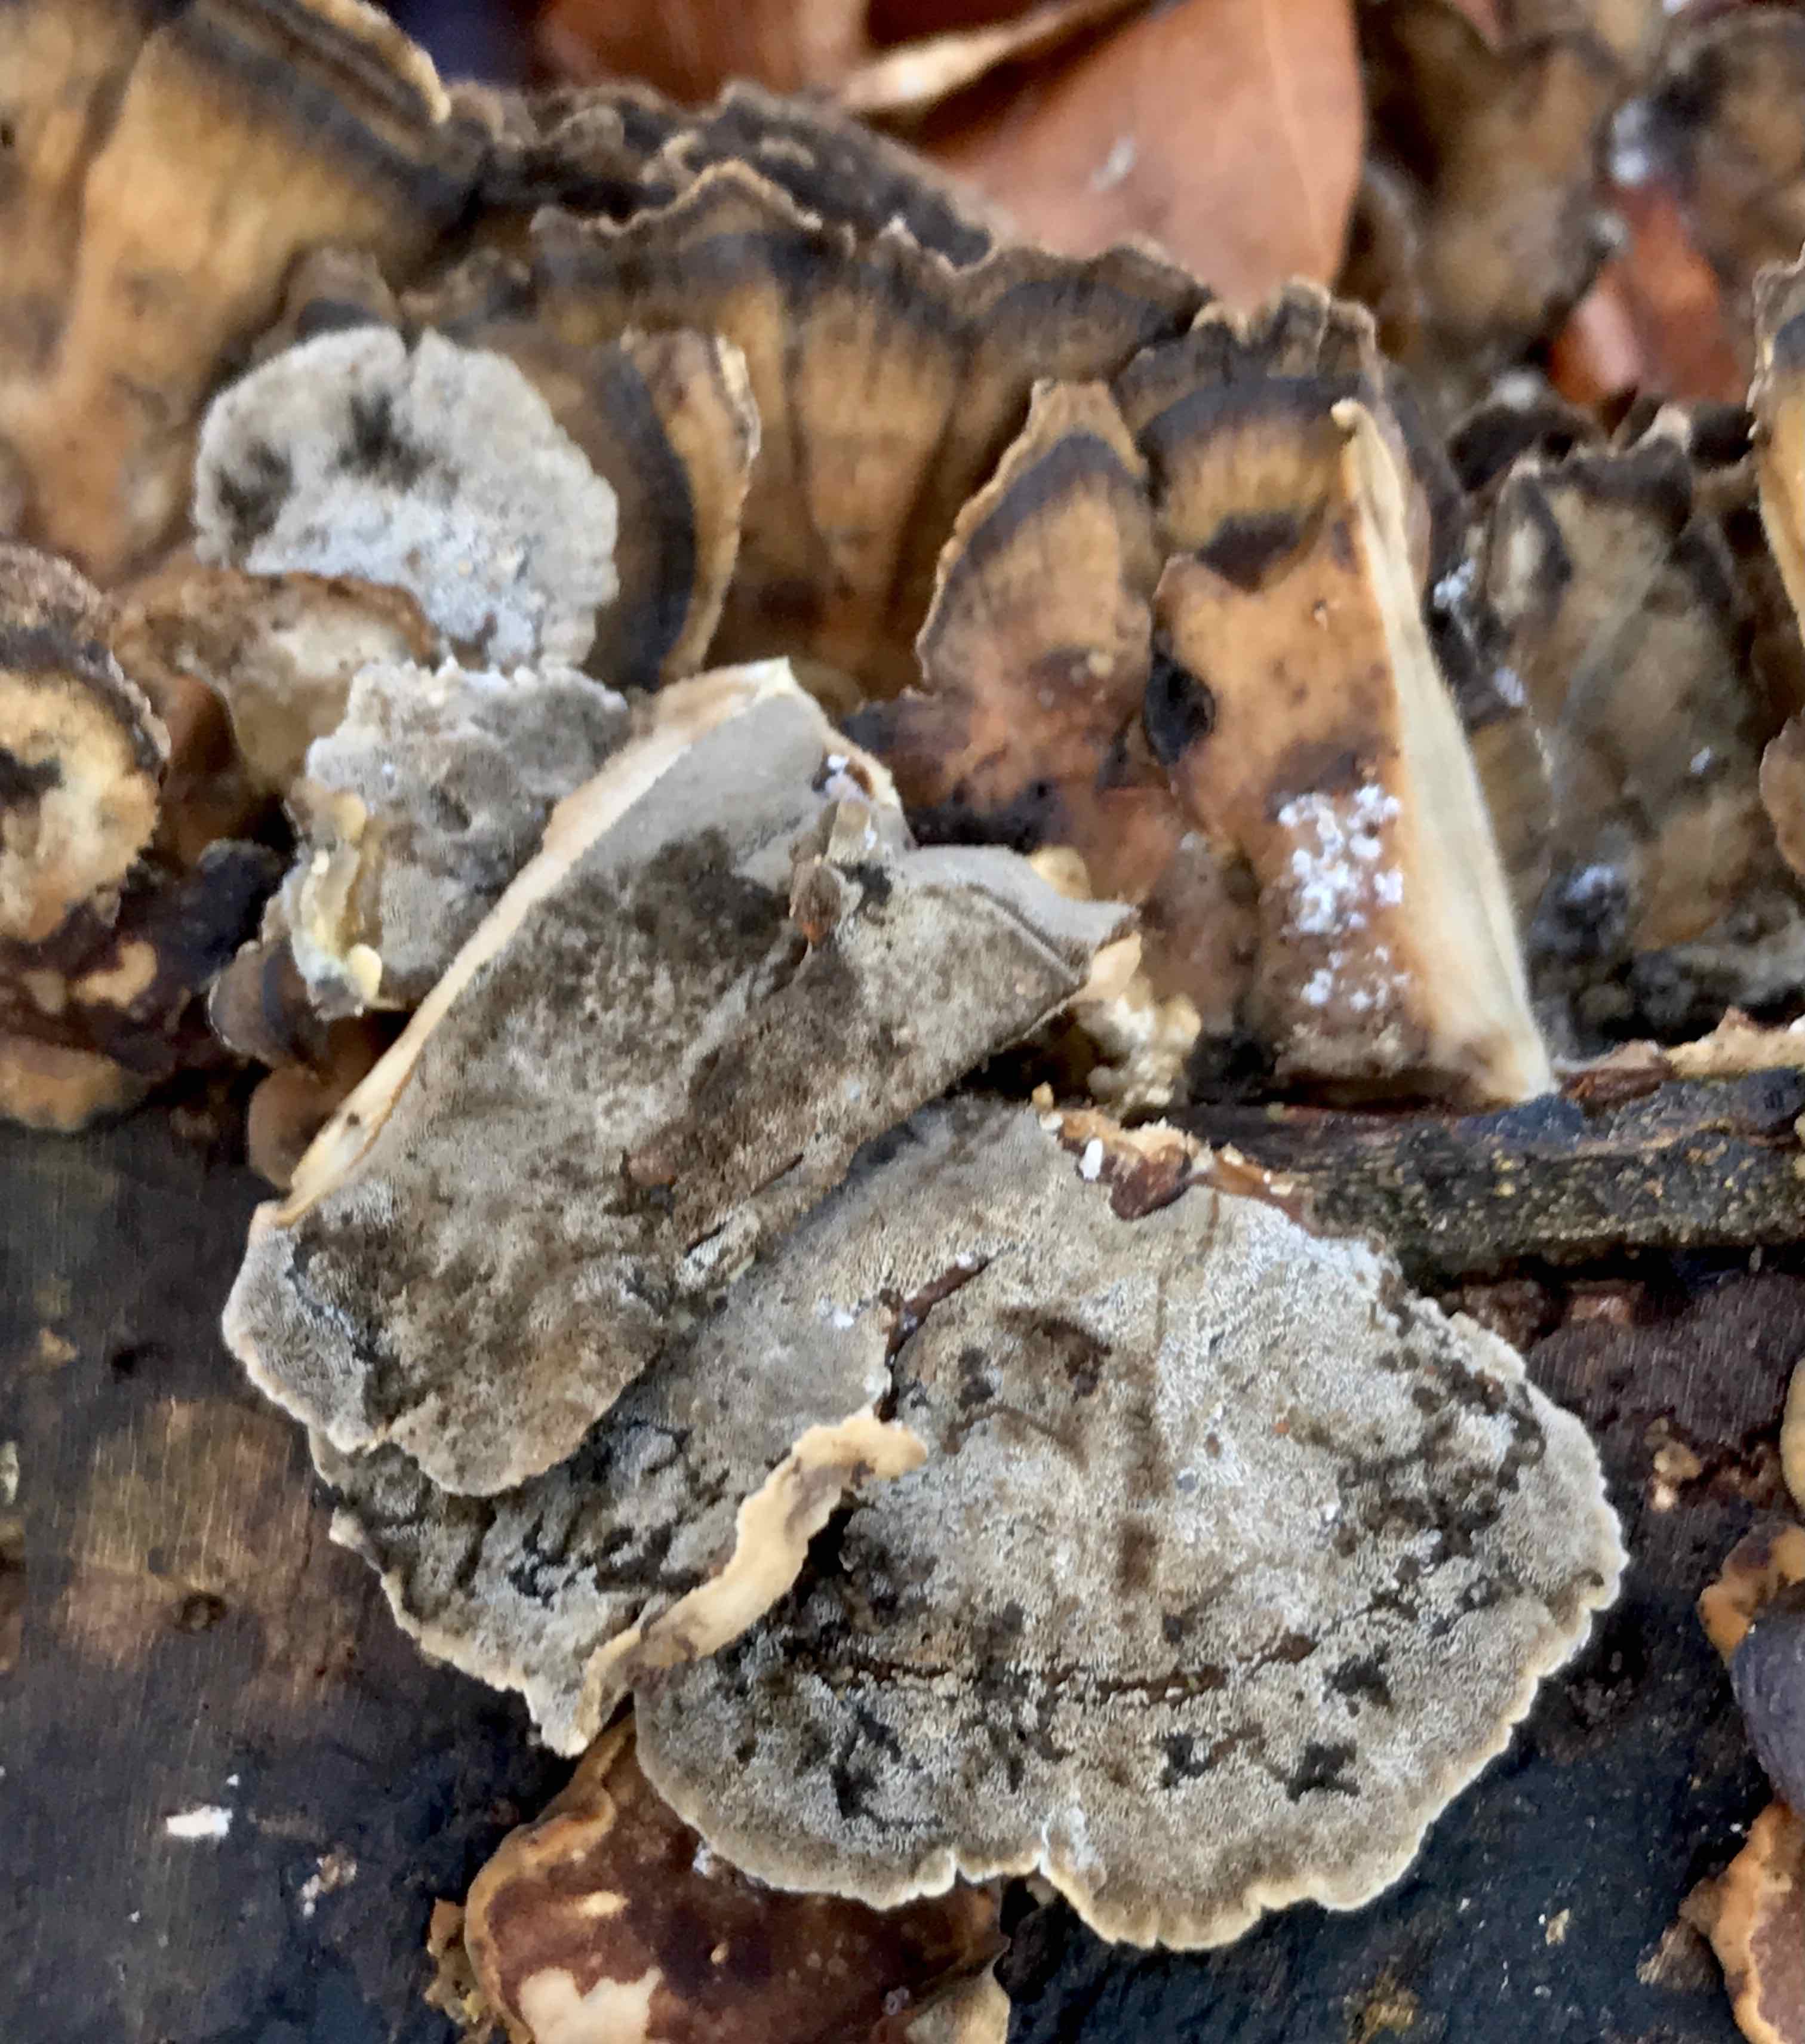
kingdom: Fungi
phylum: Basidiomycota
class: Agaricomycetes
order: Polyporales
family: Phanerochaetaceae
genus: Bjerkandera
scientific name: Bjerkandera adusta
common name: sveden sodporesvamp
